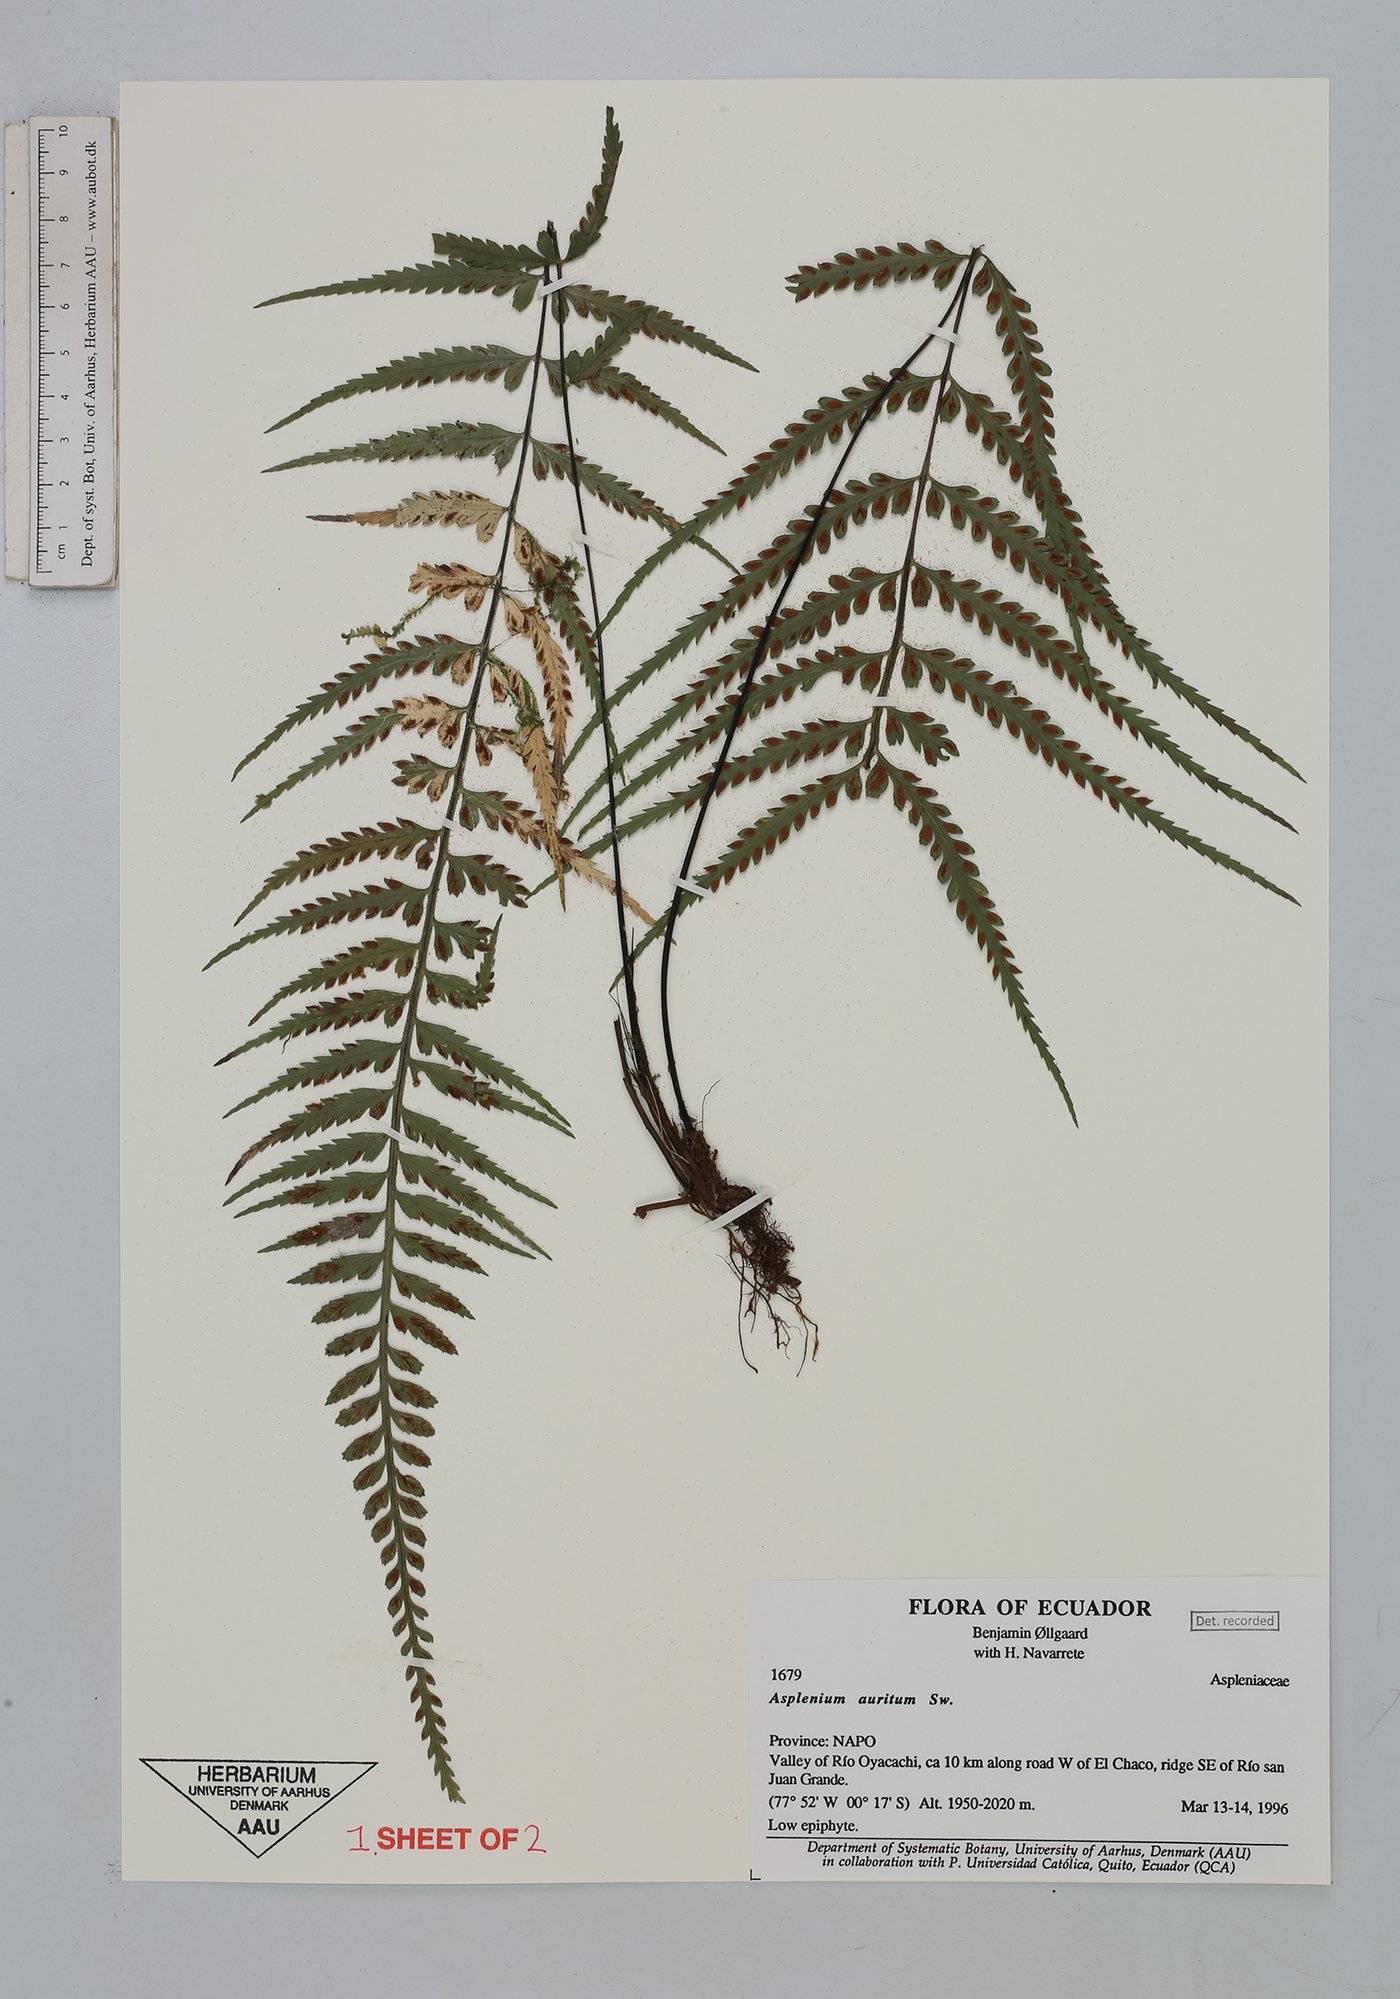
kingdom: Plantae
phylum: Tracheophyta
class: Polypodiopsida
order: Polypodiales
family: Aspleniaceae
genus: Asplenium
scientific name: Asplenium auritum
